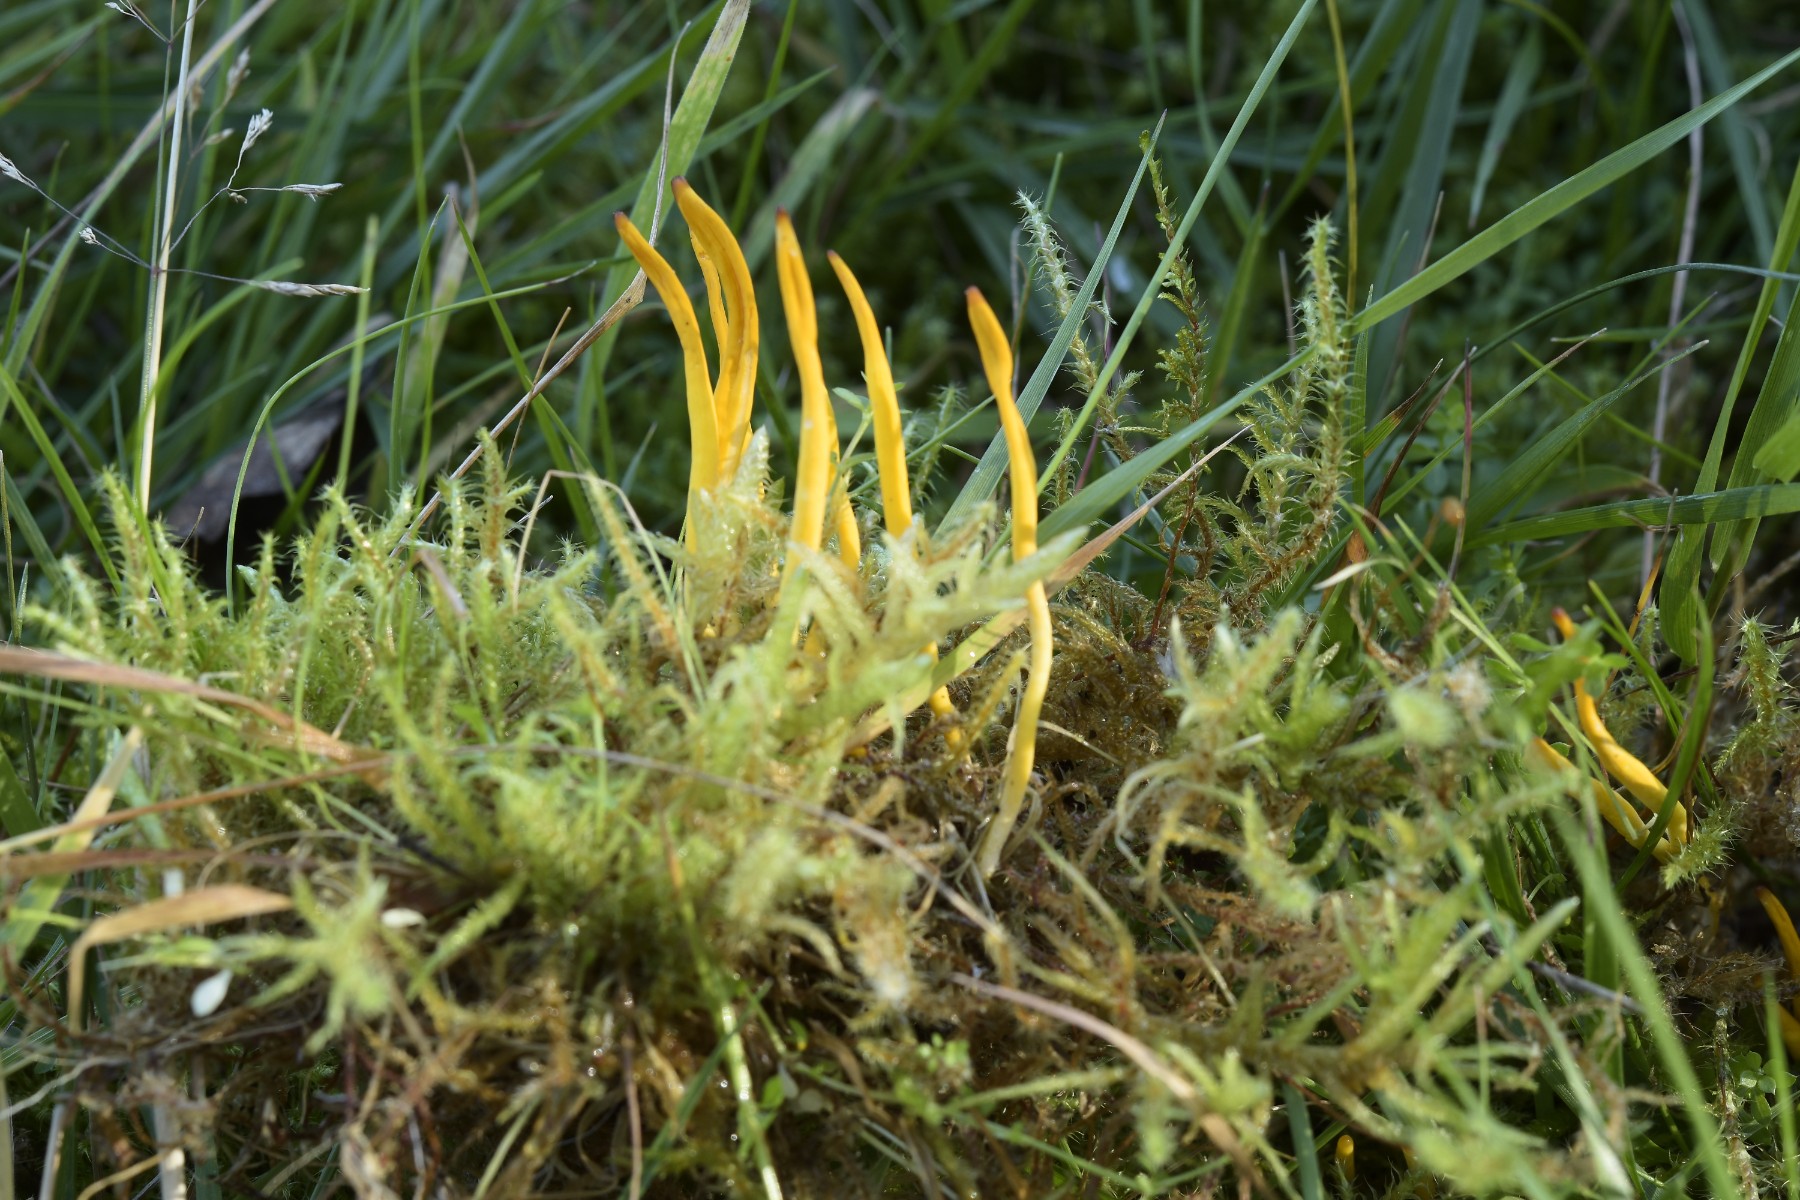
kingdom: Fungi
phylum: Basidiomycota
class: Agaricomycetes
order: Agaricales
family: Clavariaceae
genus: Clavulinopsis
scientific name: Clavulinopsis helvola
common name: orangegul køllesvamp
